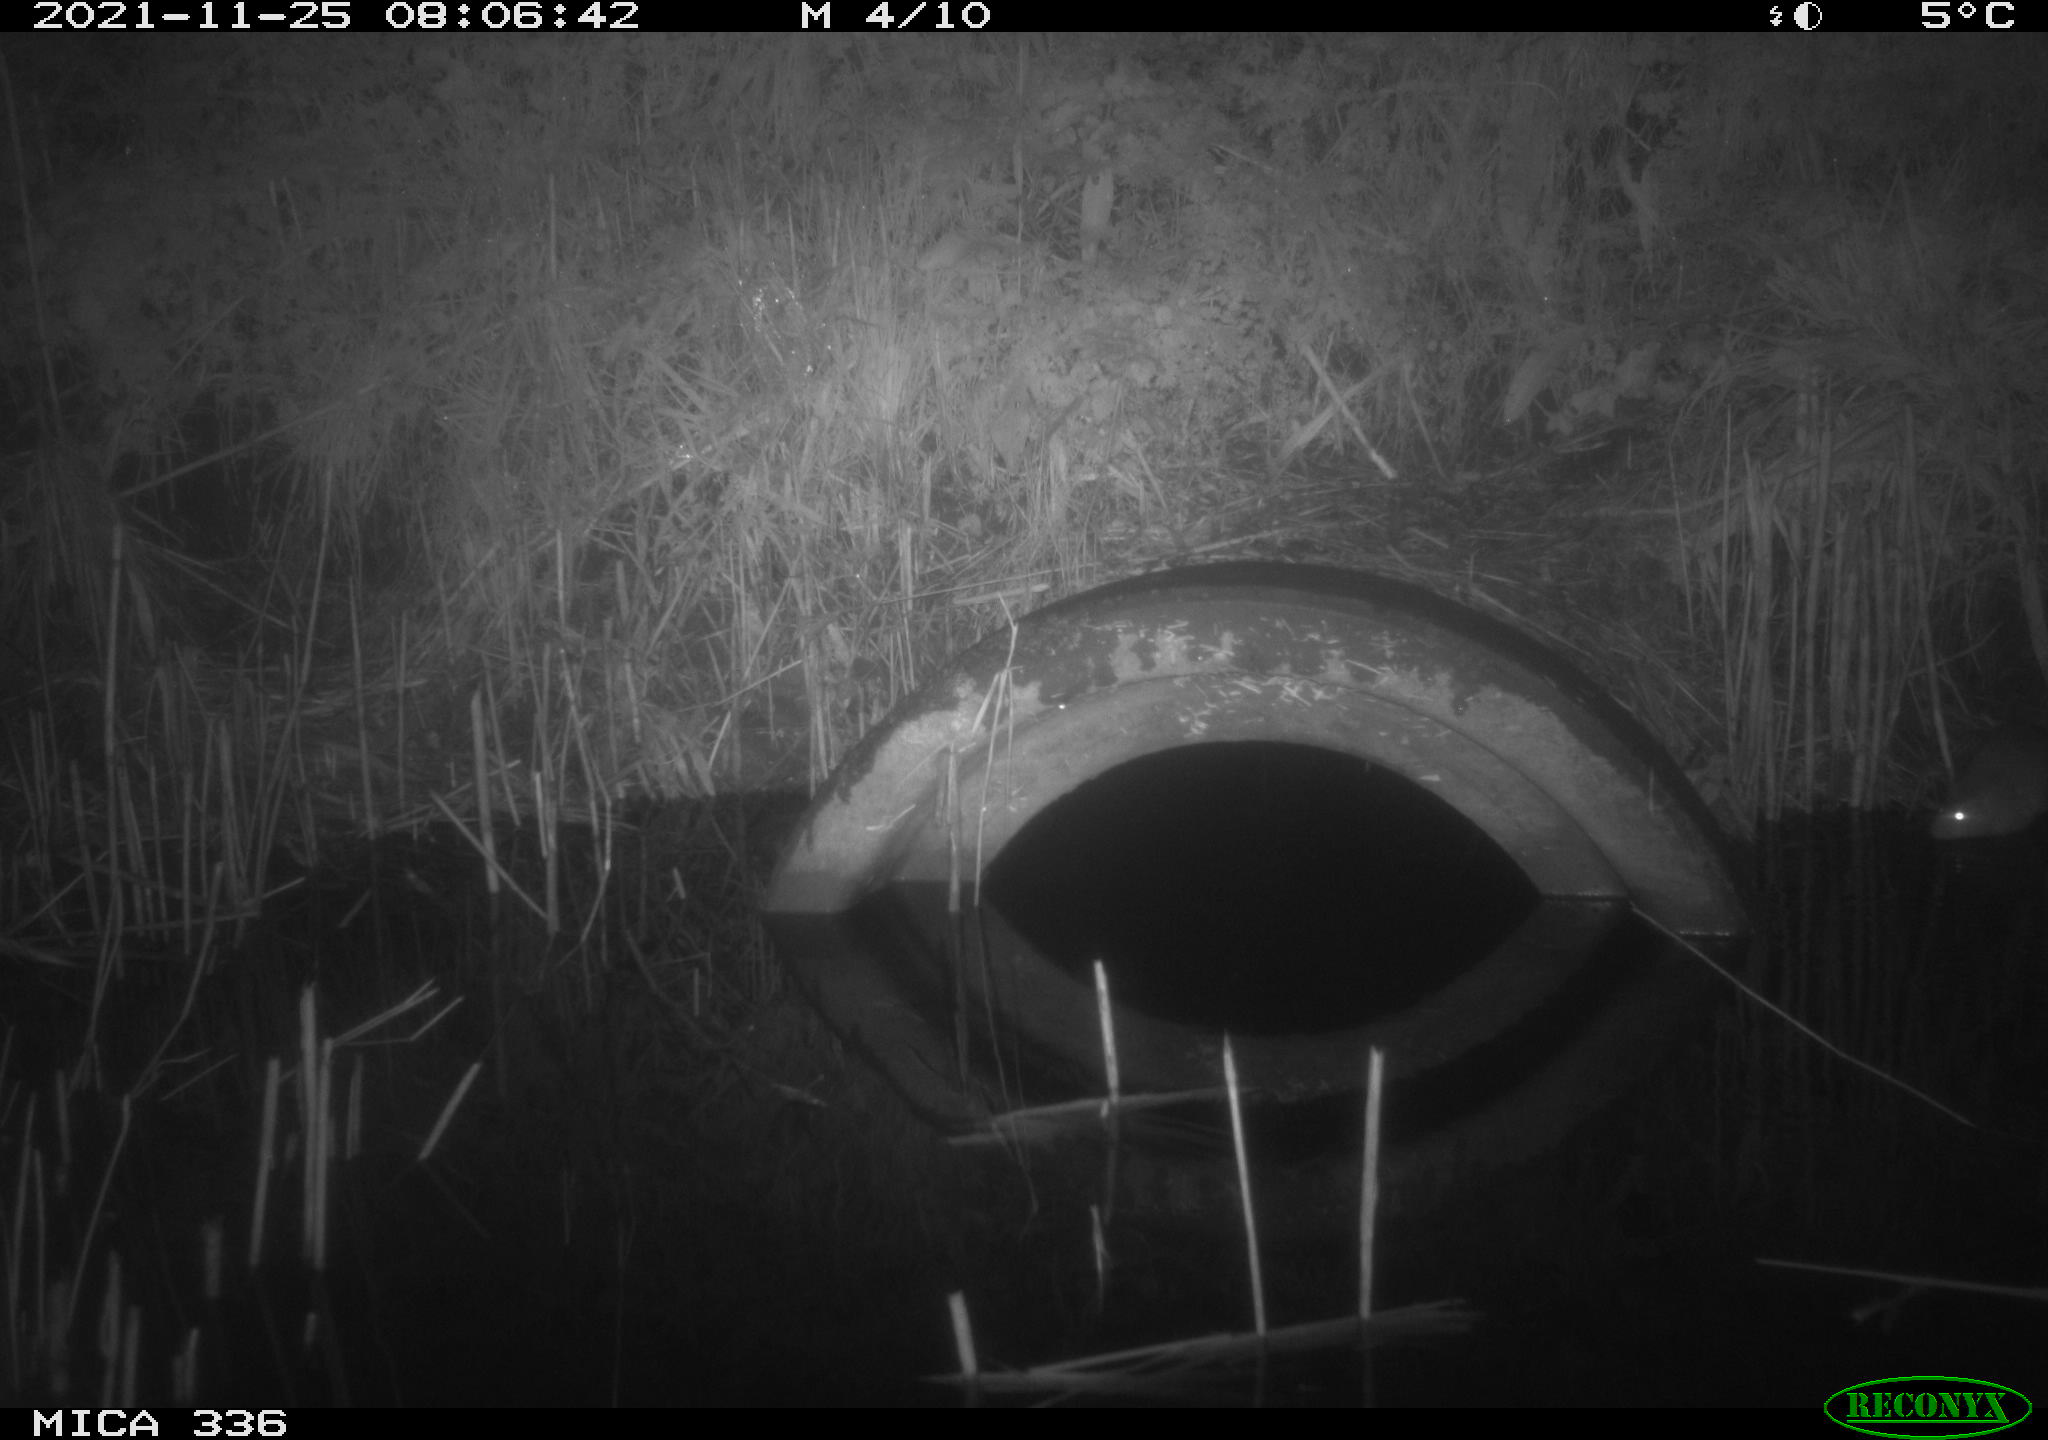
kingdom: Animalia
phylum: Chordata
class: Mammalia
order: Rodentia
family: Muridae
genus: Rattus
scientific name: Rattus norvegicus
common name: Brown rat
